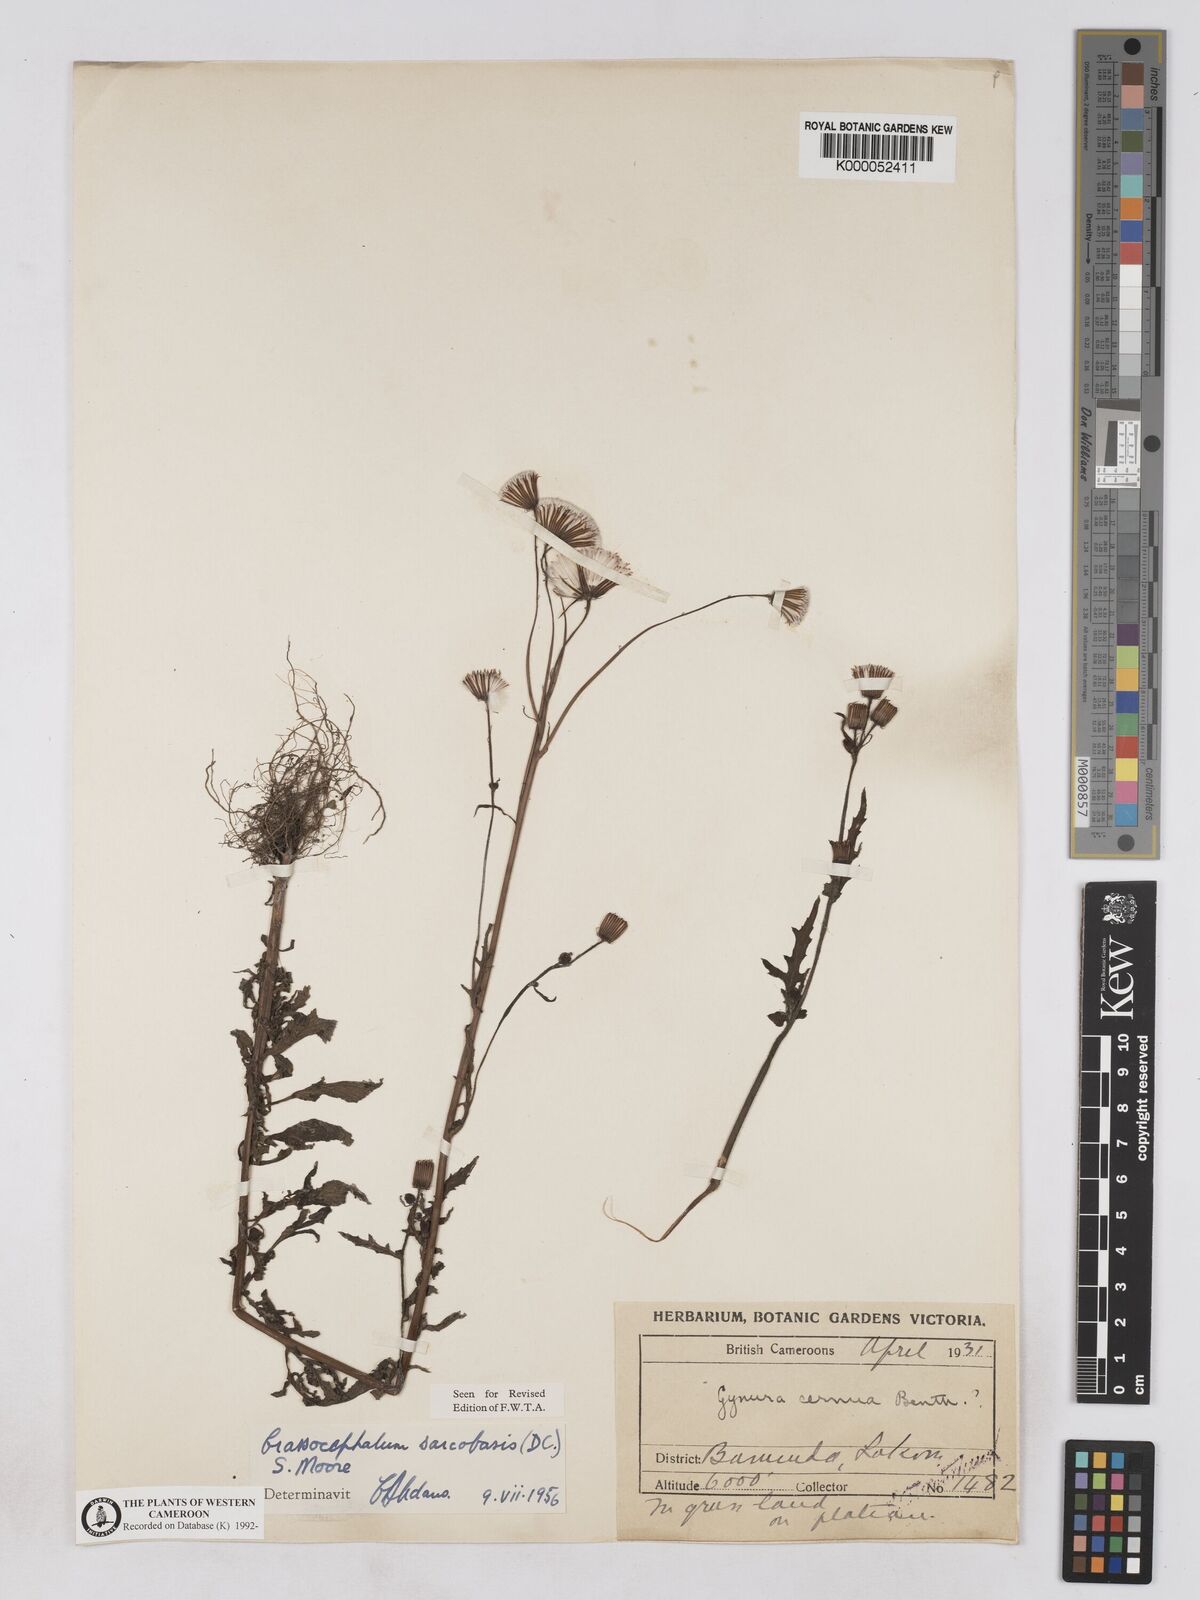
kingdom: Plantae
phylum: Tracheophyta
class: Magnoliopsida
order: Asterales
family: Asteraceae
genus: Crassocephalum
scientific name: Crassocephalum rubens
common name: Yoruban bologi
